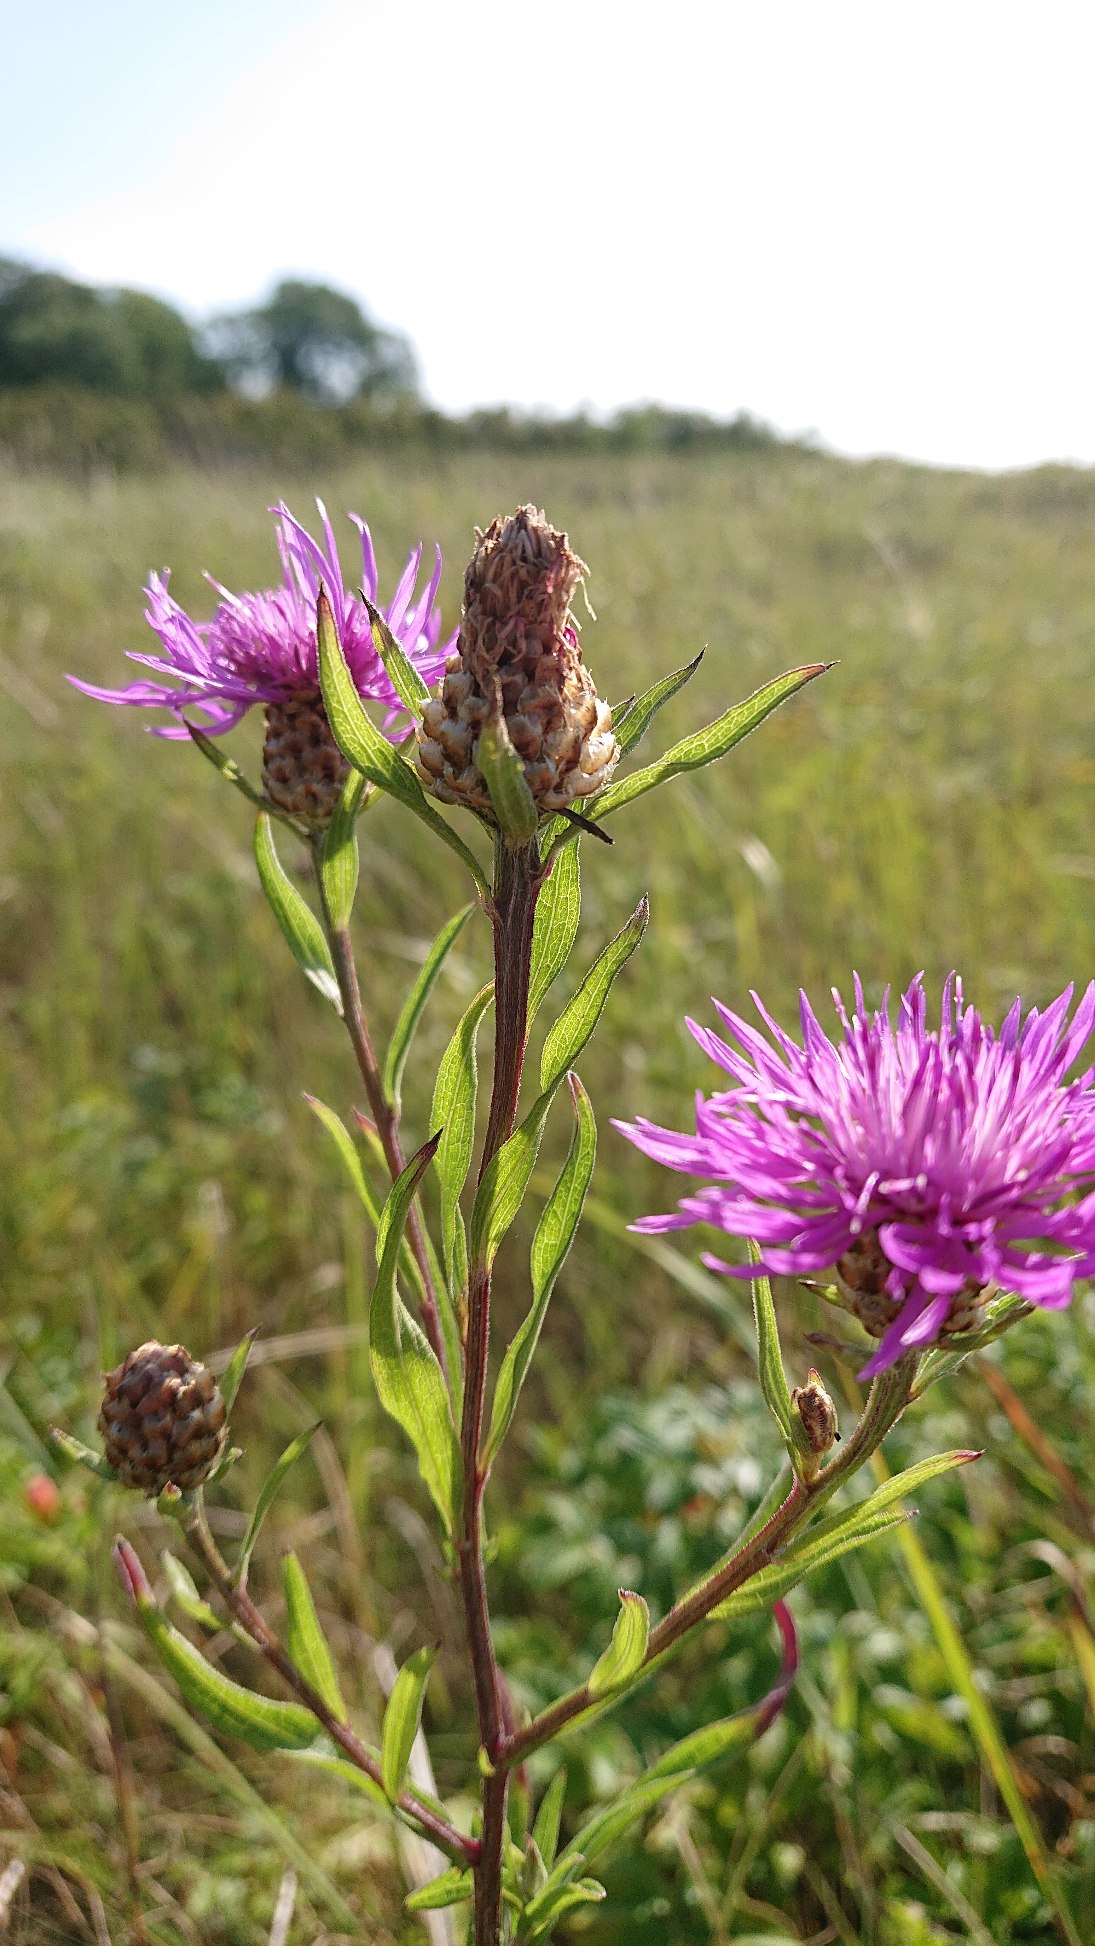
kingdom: Plantae
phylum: Tracheophyta
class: Magnoliopsida
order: Asterales
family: Asteraceae
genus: Centaurea
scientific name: Centaurea jacea
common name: Almindelig knopurt
